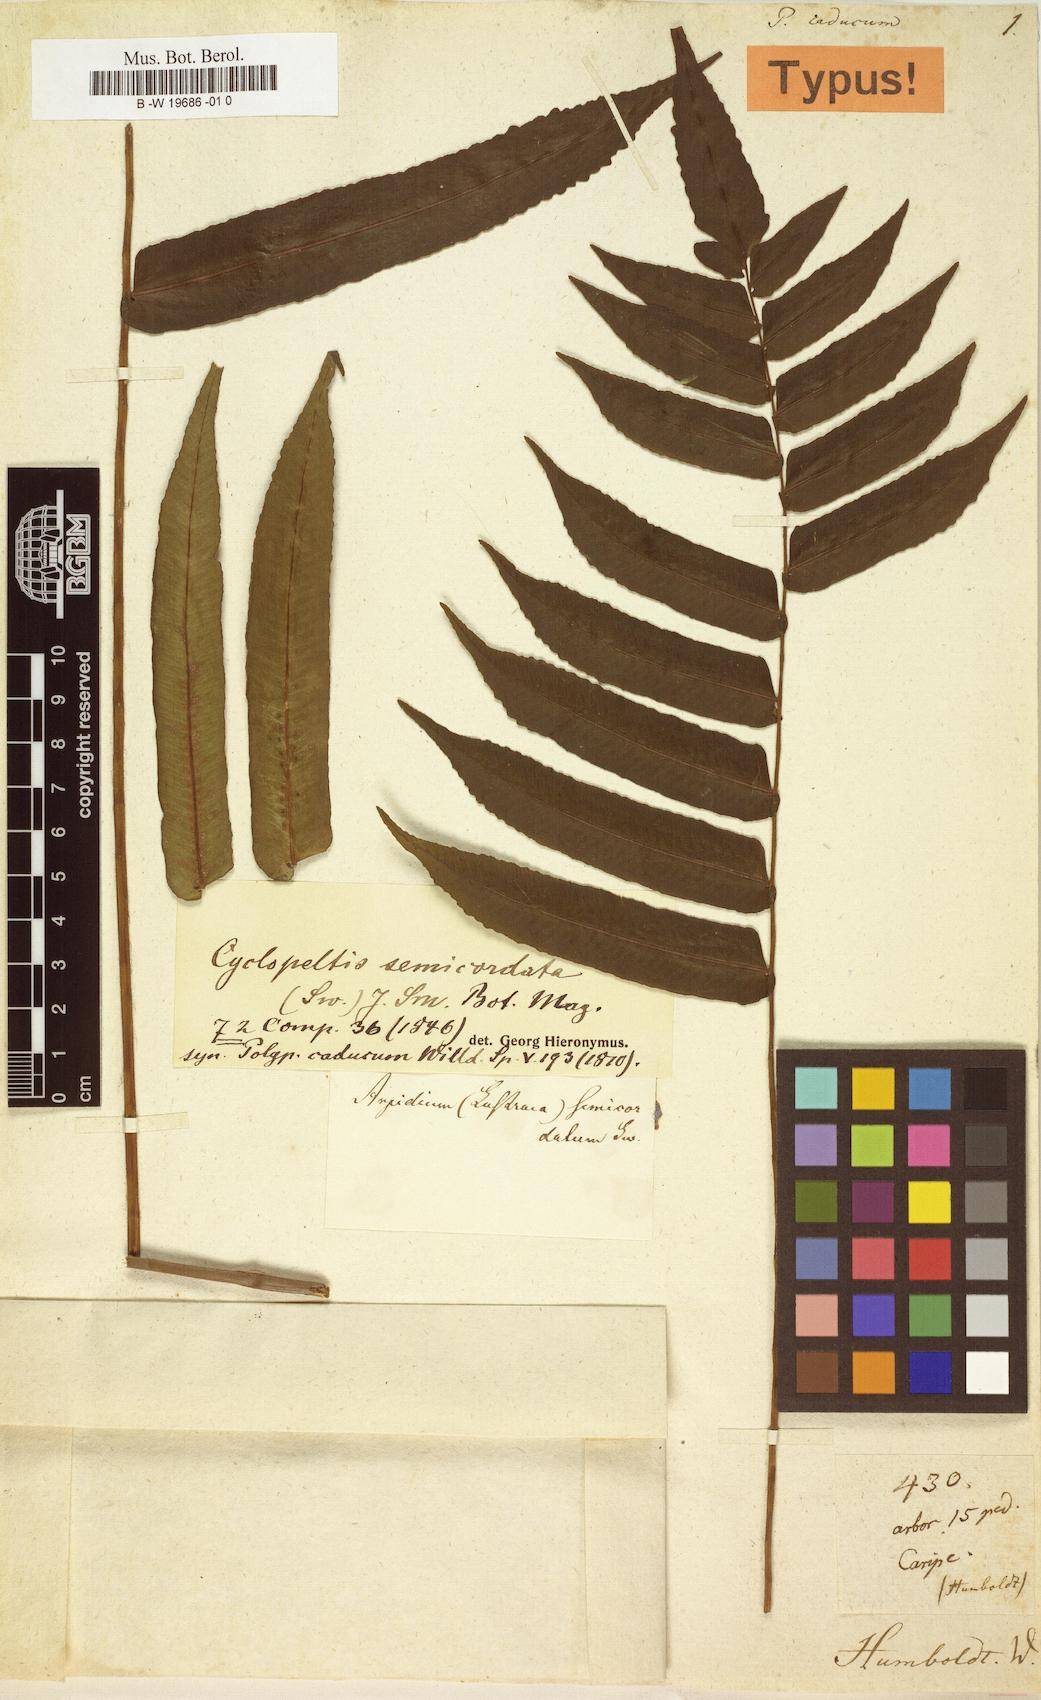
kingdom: Plantae
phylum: Tracheophyta
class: Polypodiopsida
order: Polypodiales
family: Lomariopsidaceae
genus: Cyclopeltis
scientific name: Cyclopeltis semicordata
